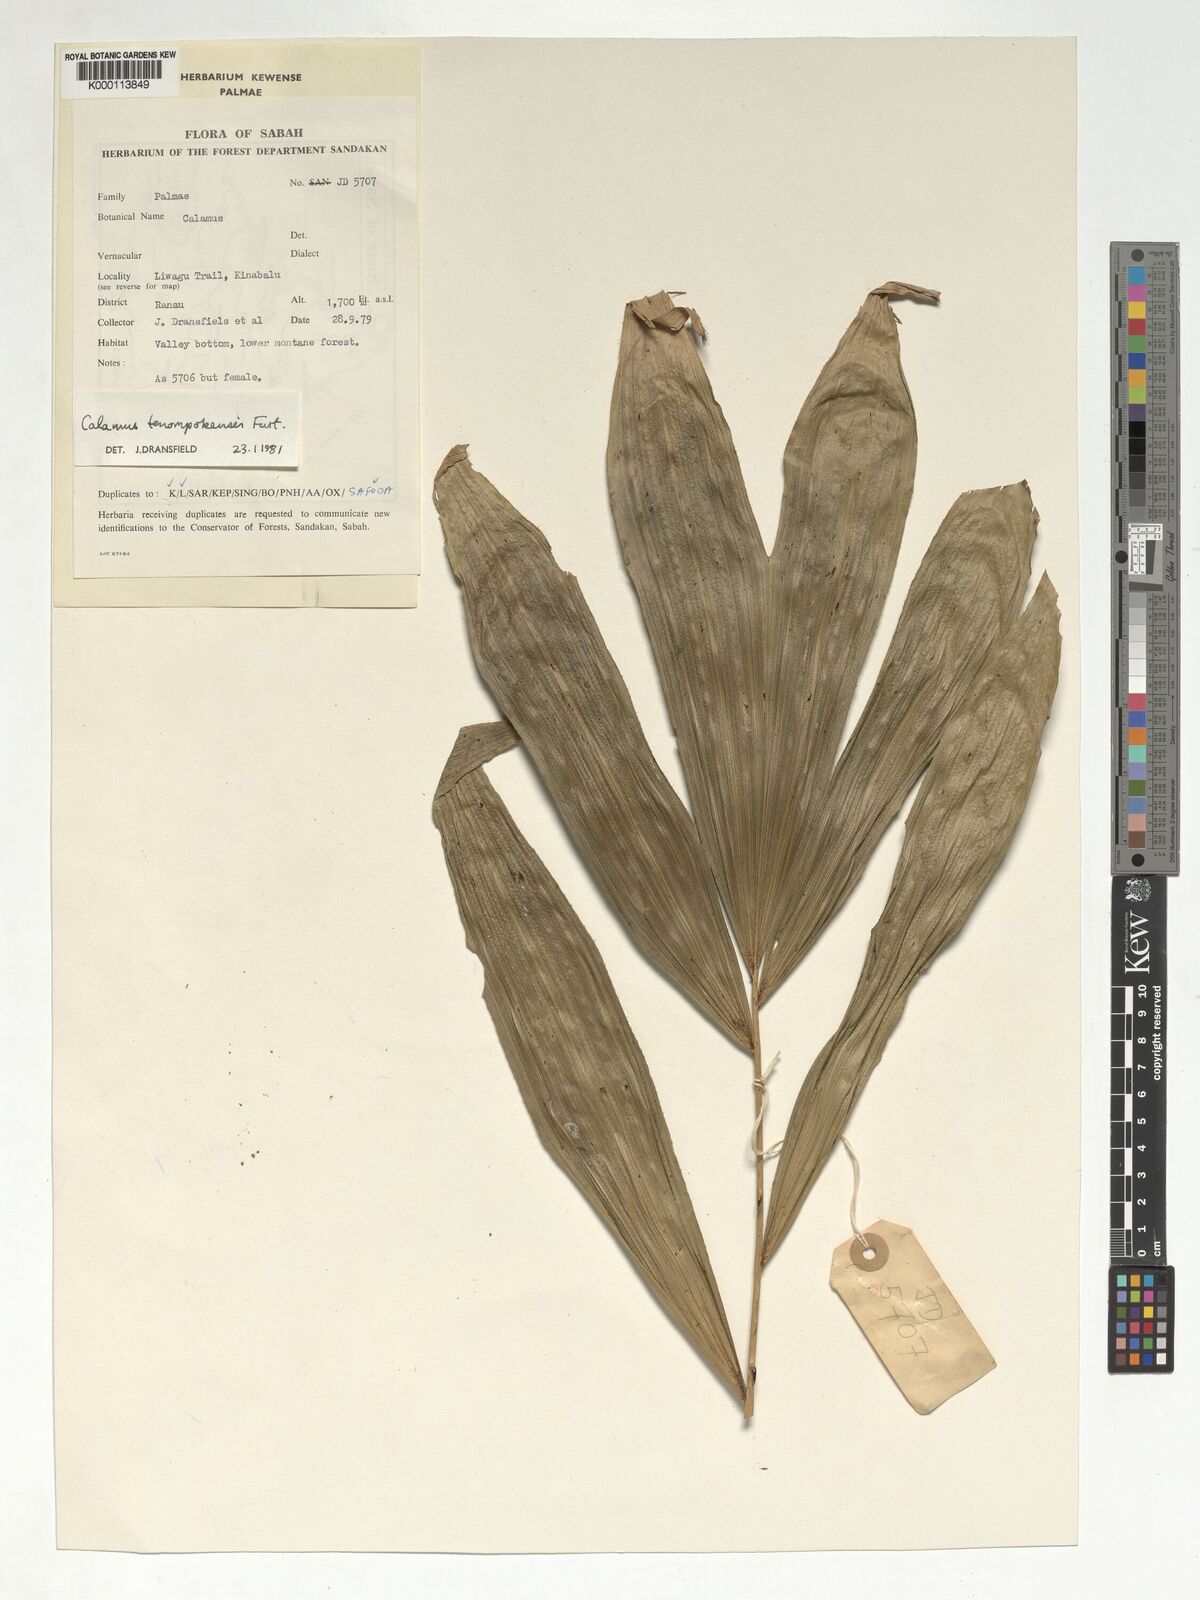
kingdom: Plantae
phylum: Tracheophyta
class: Liliopsida
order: Arecales
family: Arecaceae
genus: Calamus
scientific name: Calamus tenompokensis
